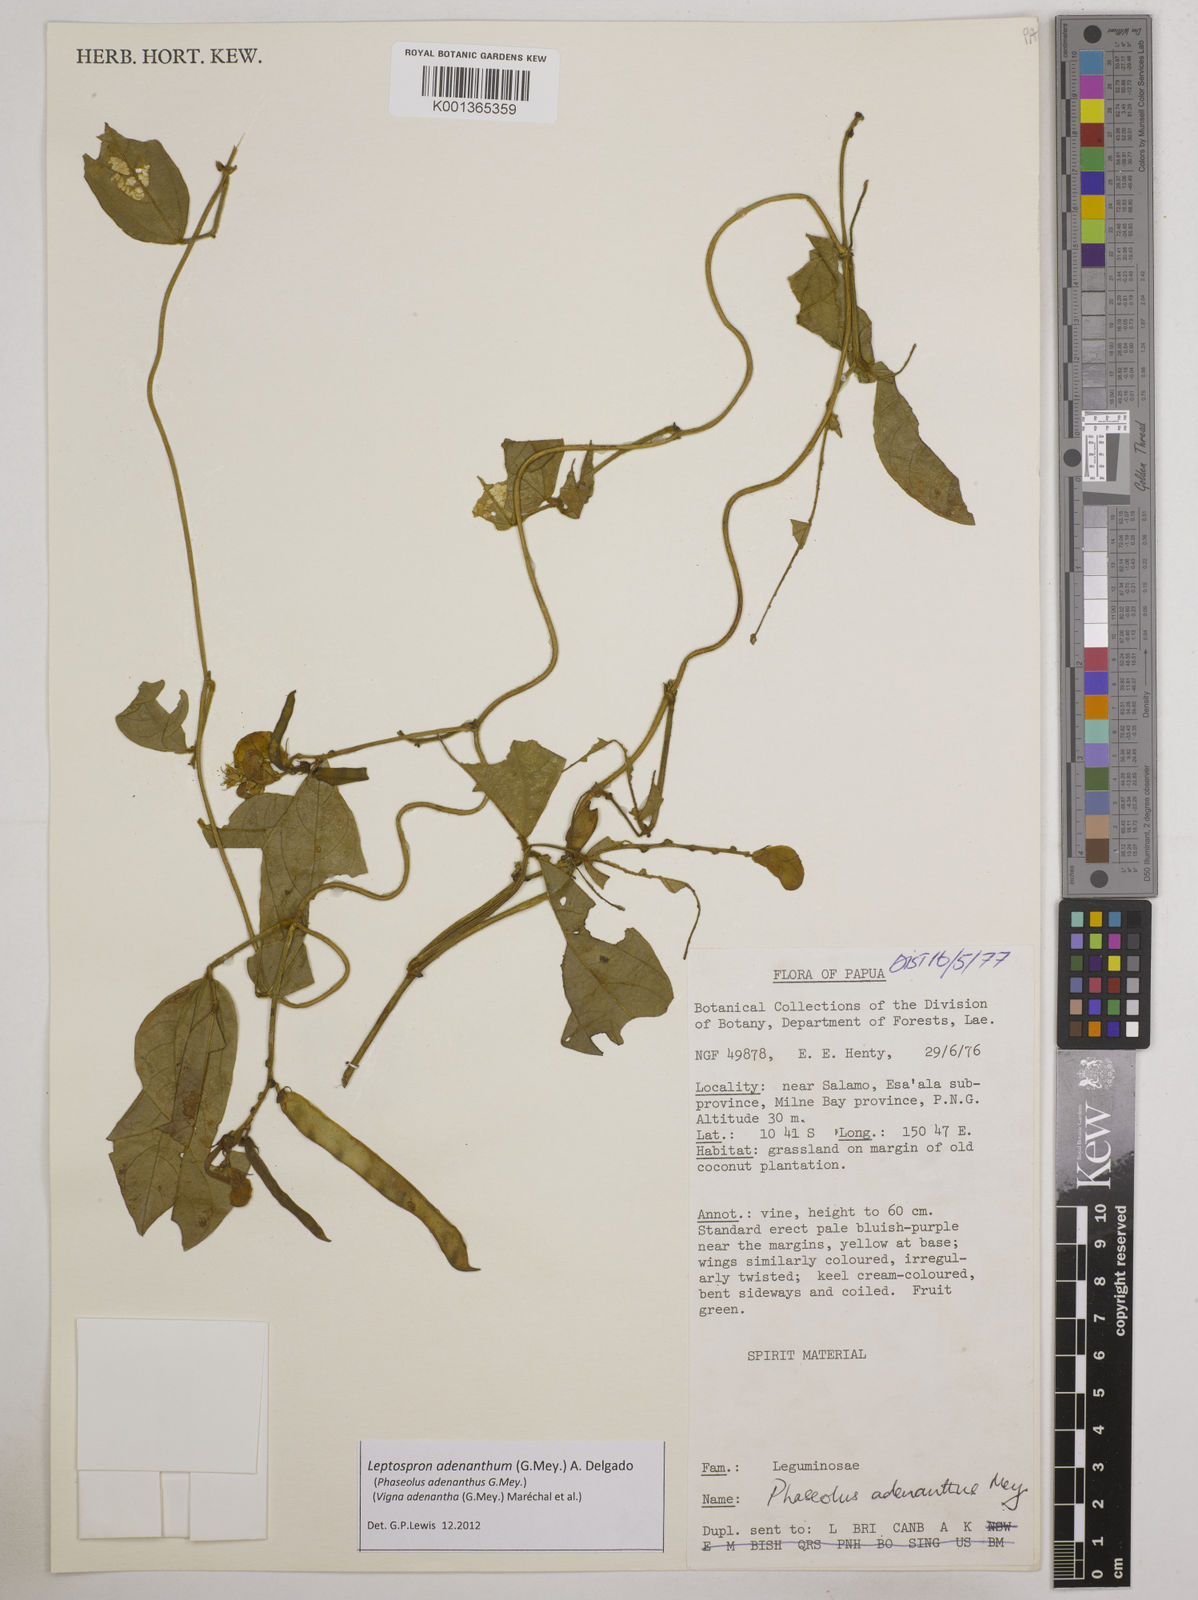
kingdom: Plantae
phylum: Tracheophyta
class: Magnoliopsida
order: Fabales
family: Fabaceae
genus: Leptospron
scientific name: Leptospron adenanthum
